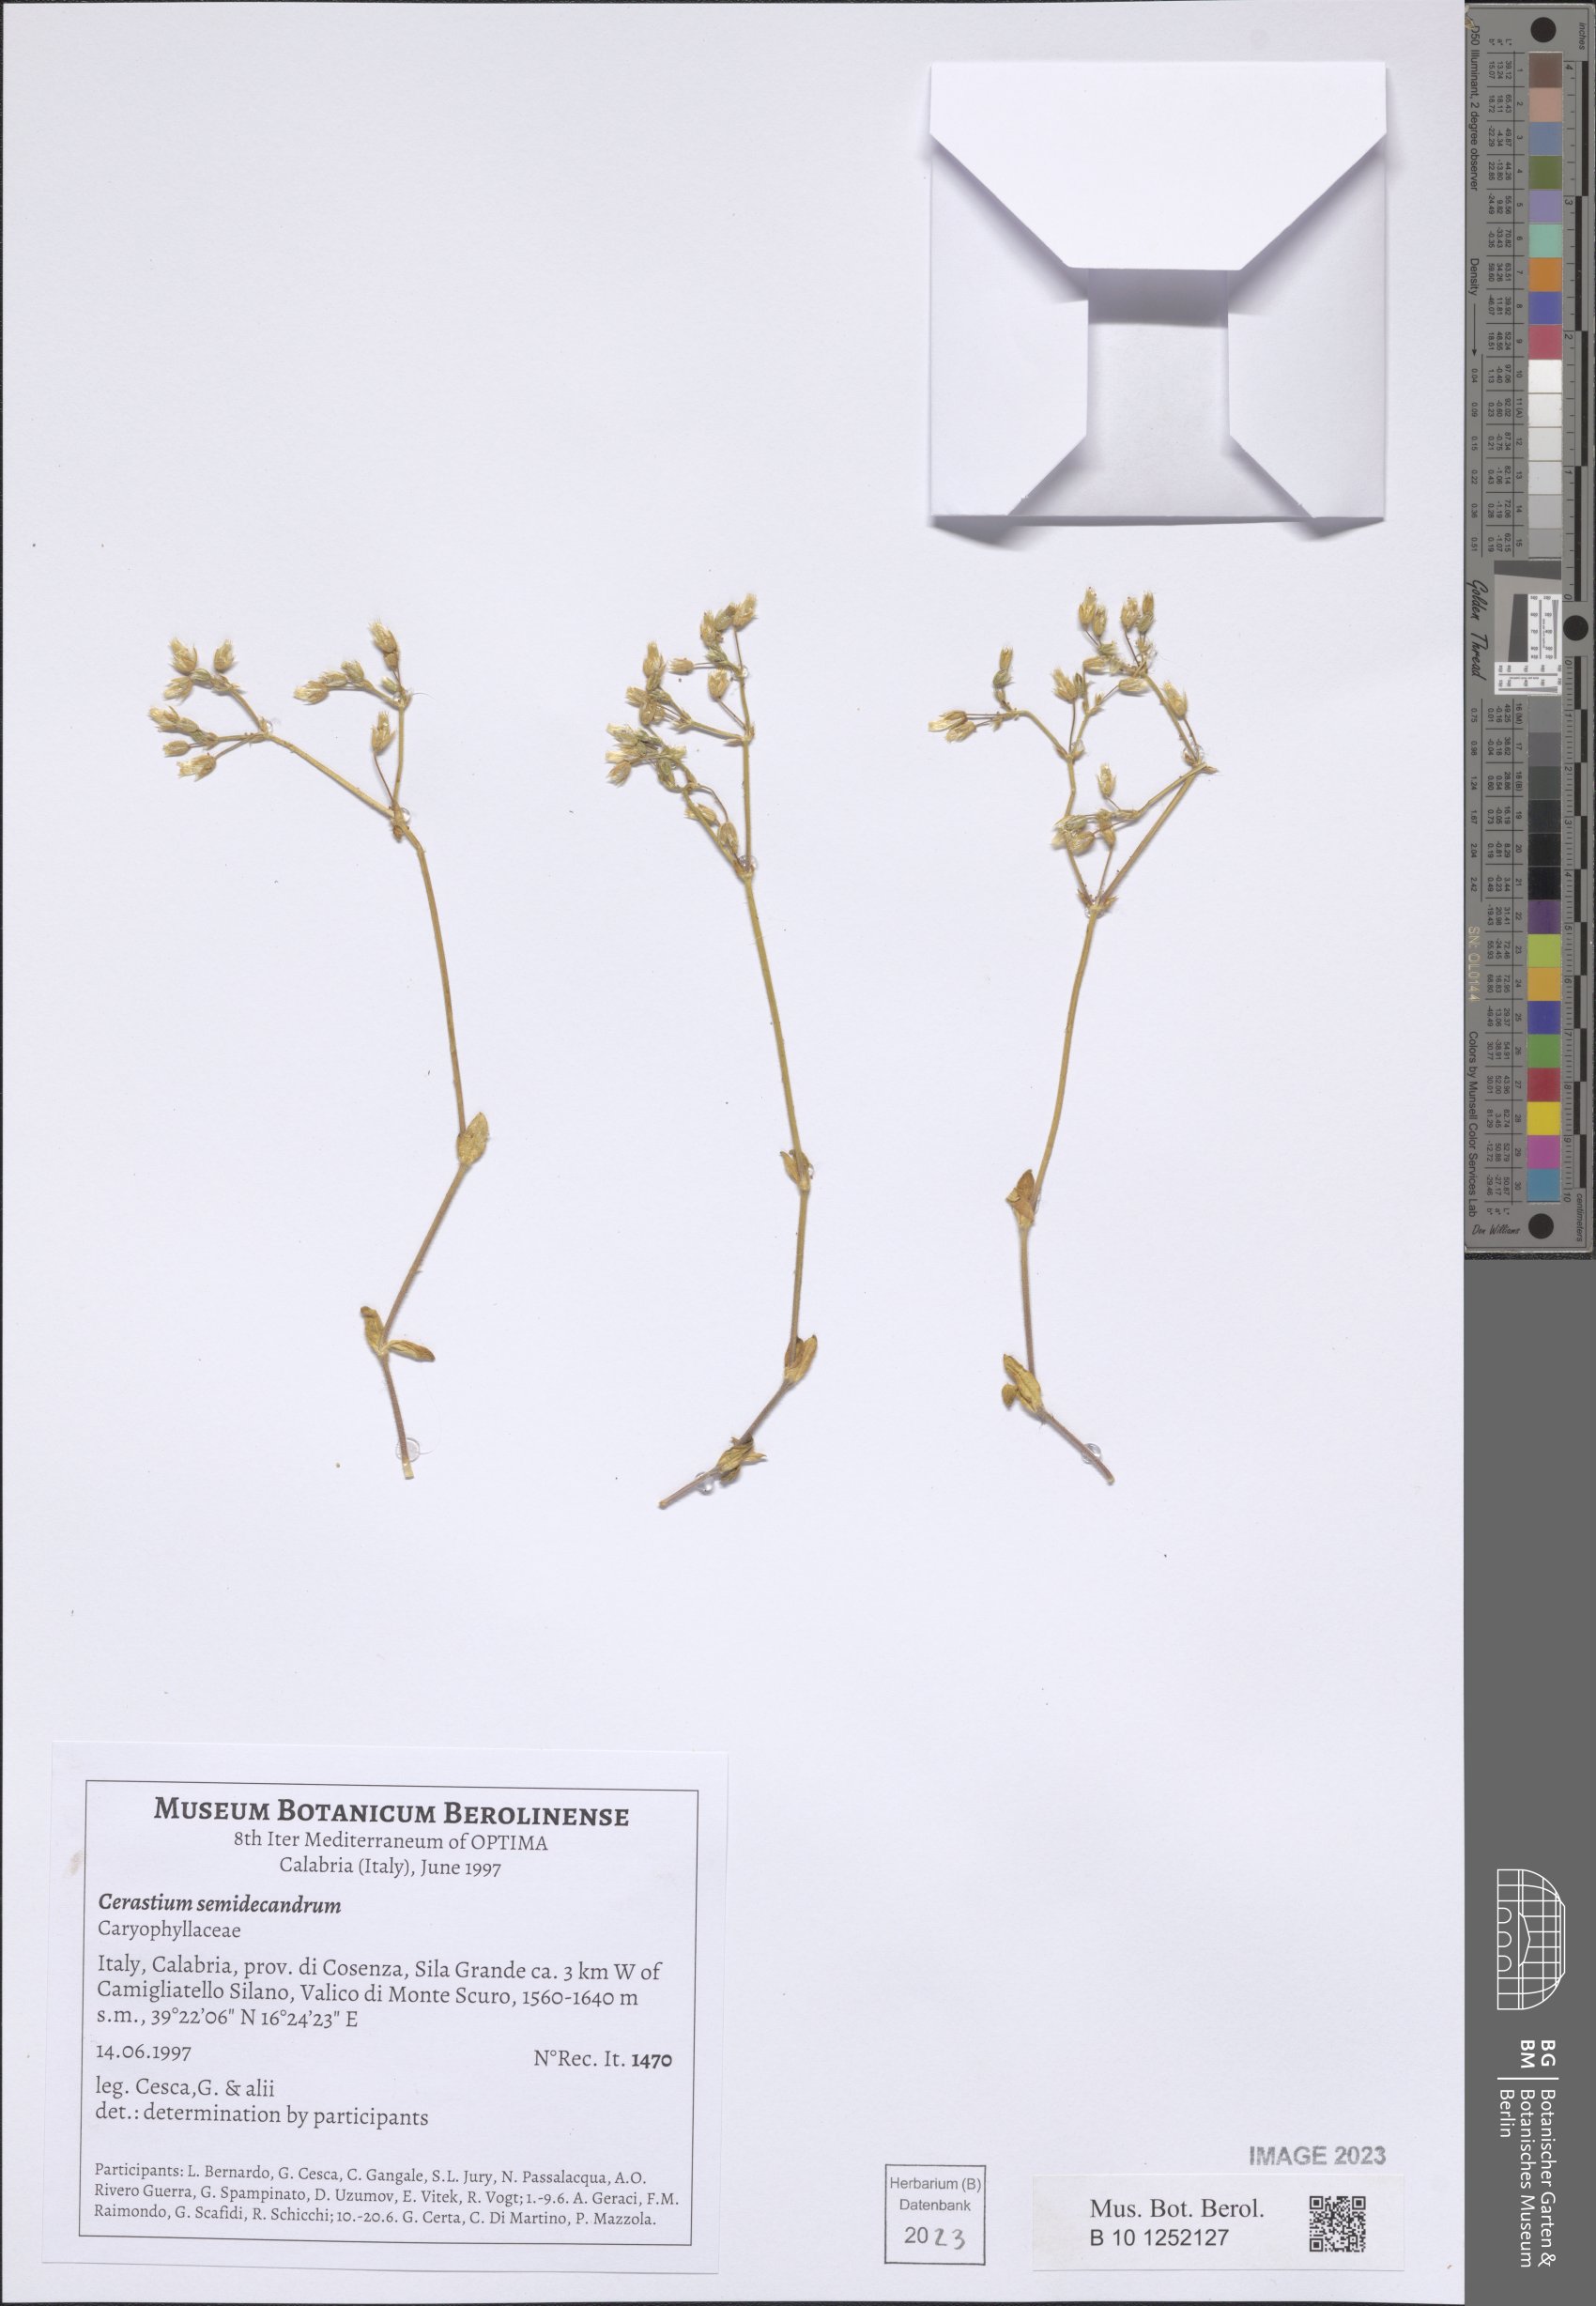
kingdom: Plantae
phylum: Tracheophyta
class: Magnoliopsida
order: Caryophyllales
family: Caryophyllaceae
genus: Cerastium
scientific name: Cerastium semidecandrum
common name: Little mouse-ear
